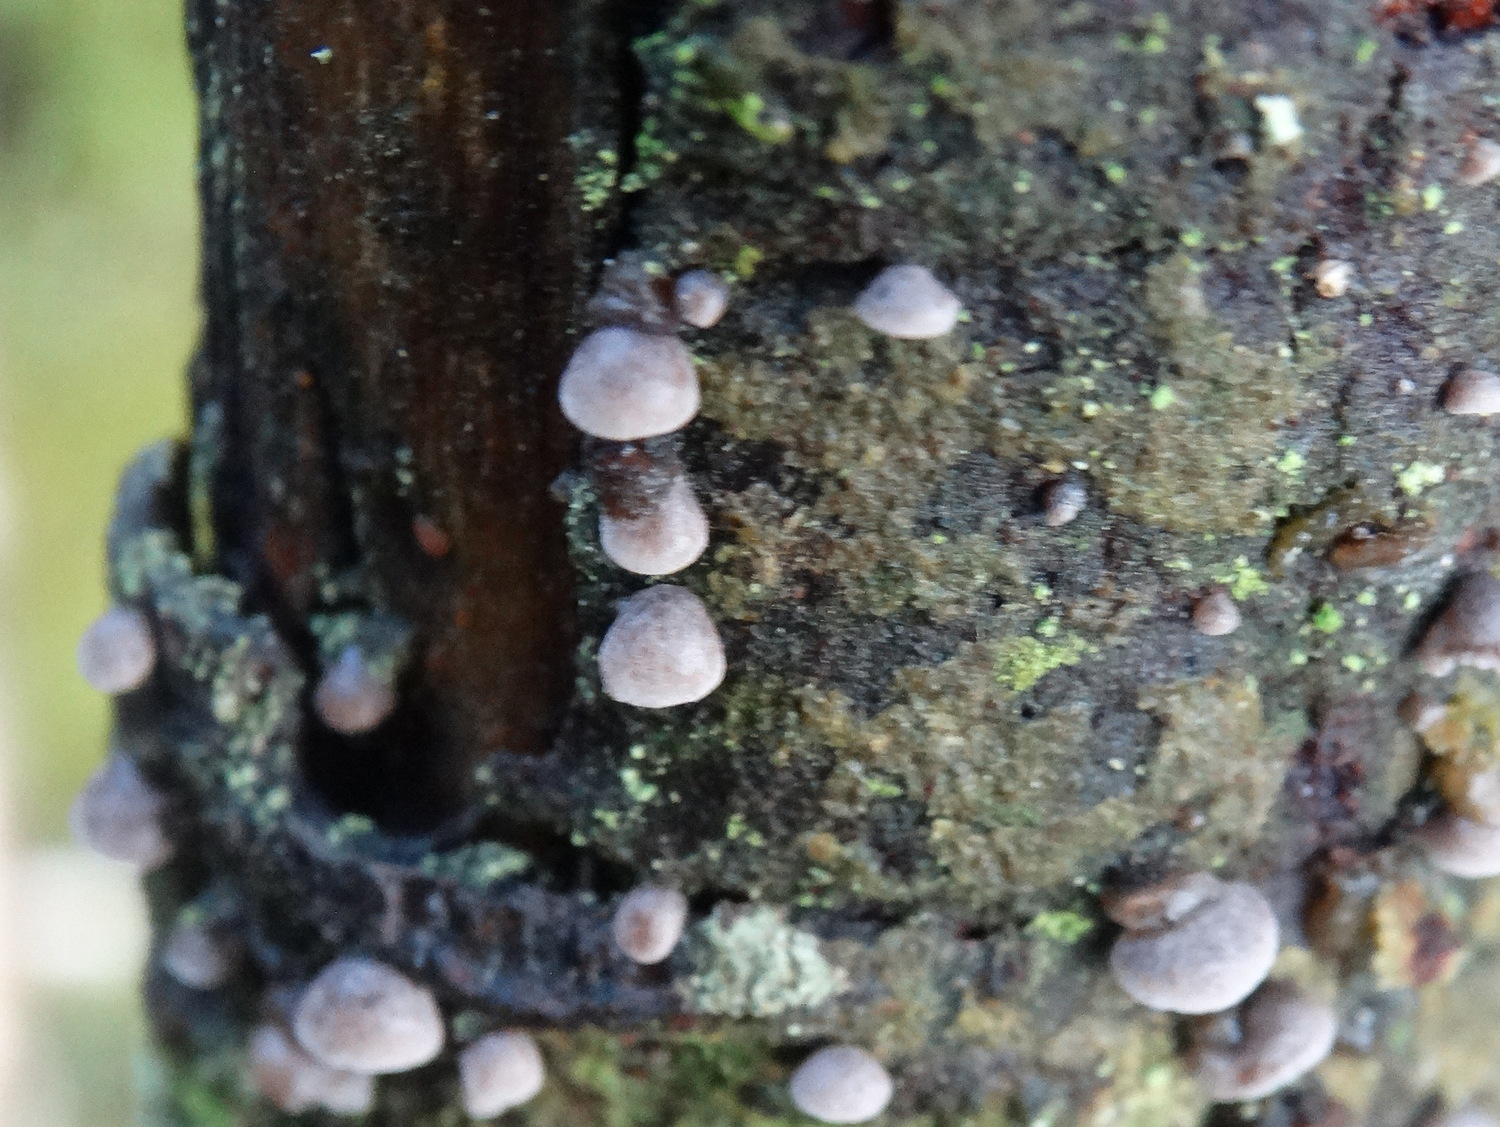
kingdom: Fungi
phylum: Basidiomycota
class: Agaricomycetes
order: Agaricales
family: Pleurotaceae
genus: Resupinatus
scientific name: Resupinatus applicatus
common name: lysfiltet barkhat
